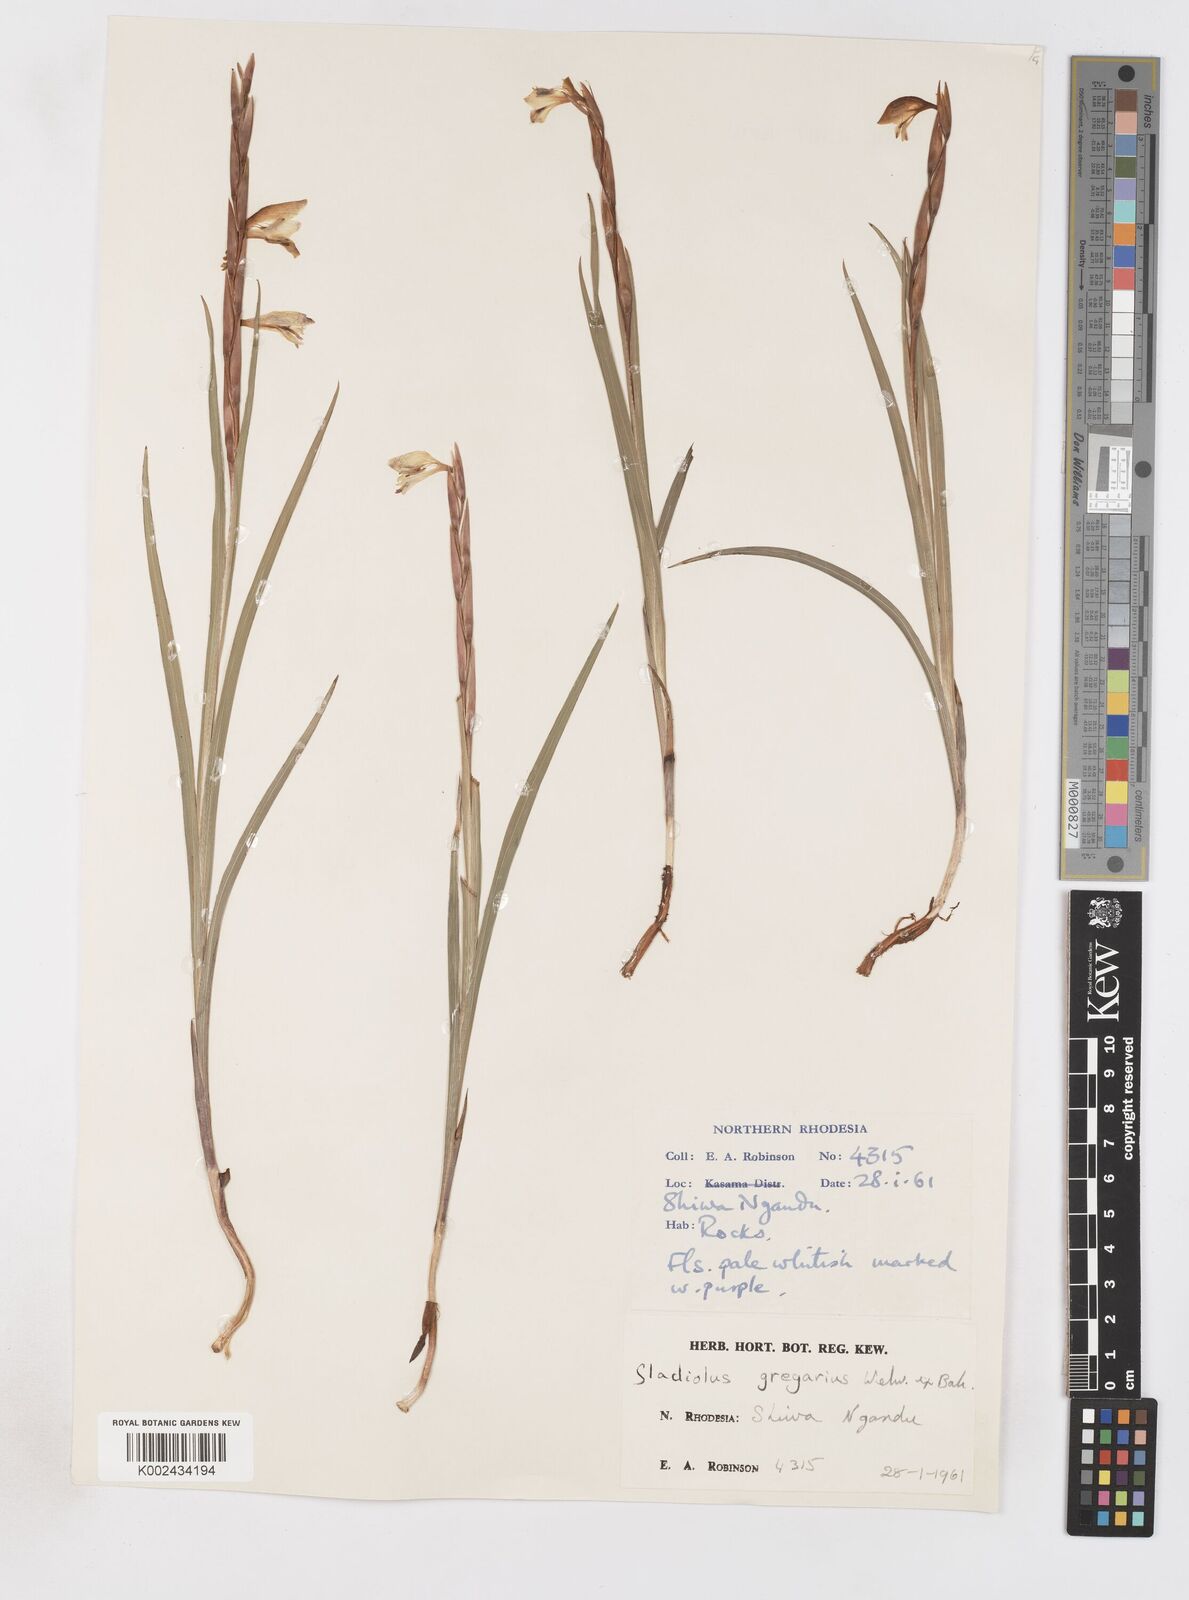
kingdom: Plantae
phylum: Tracheophyta
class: Liliopsida
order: Asparagales
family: Iridaceae
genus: Gladiolus
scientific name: Gladiolus gregarius
